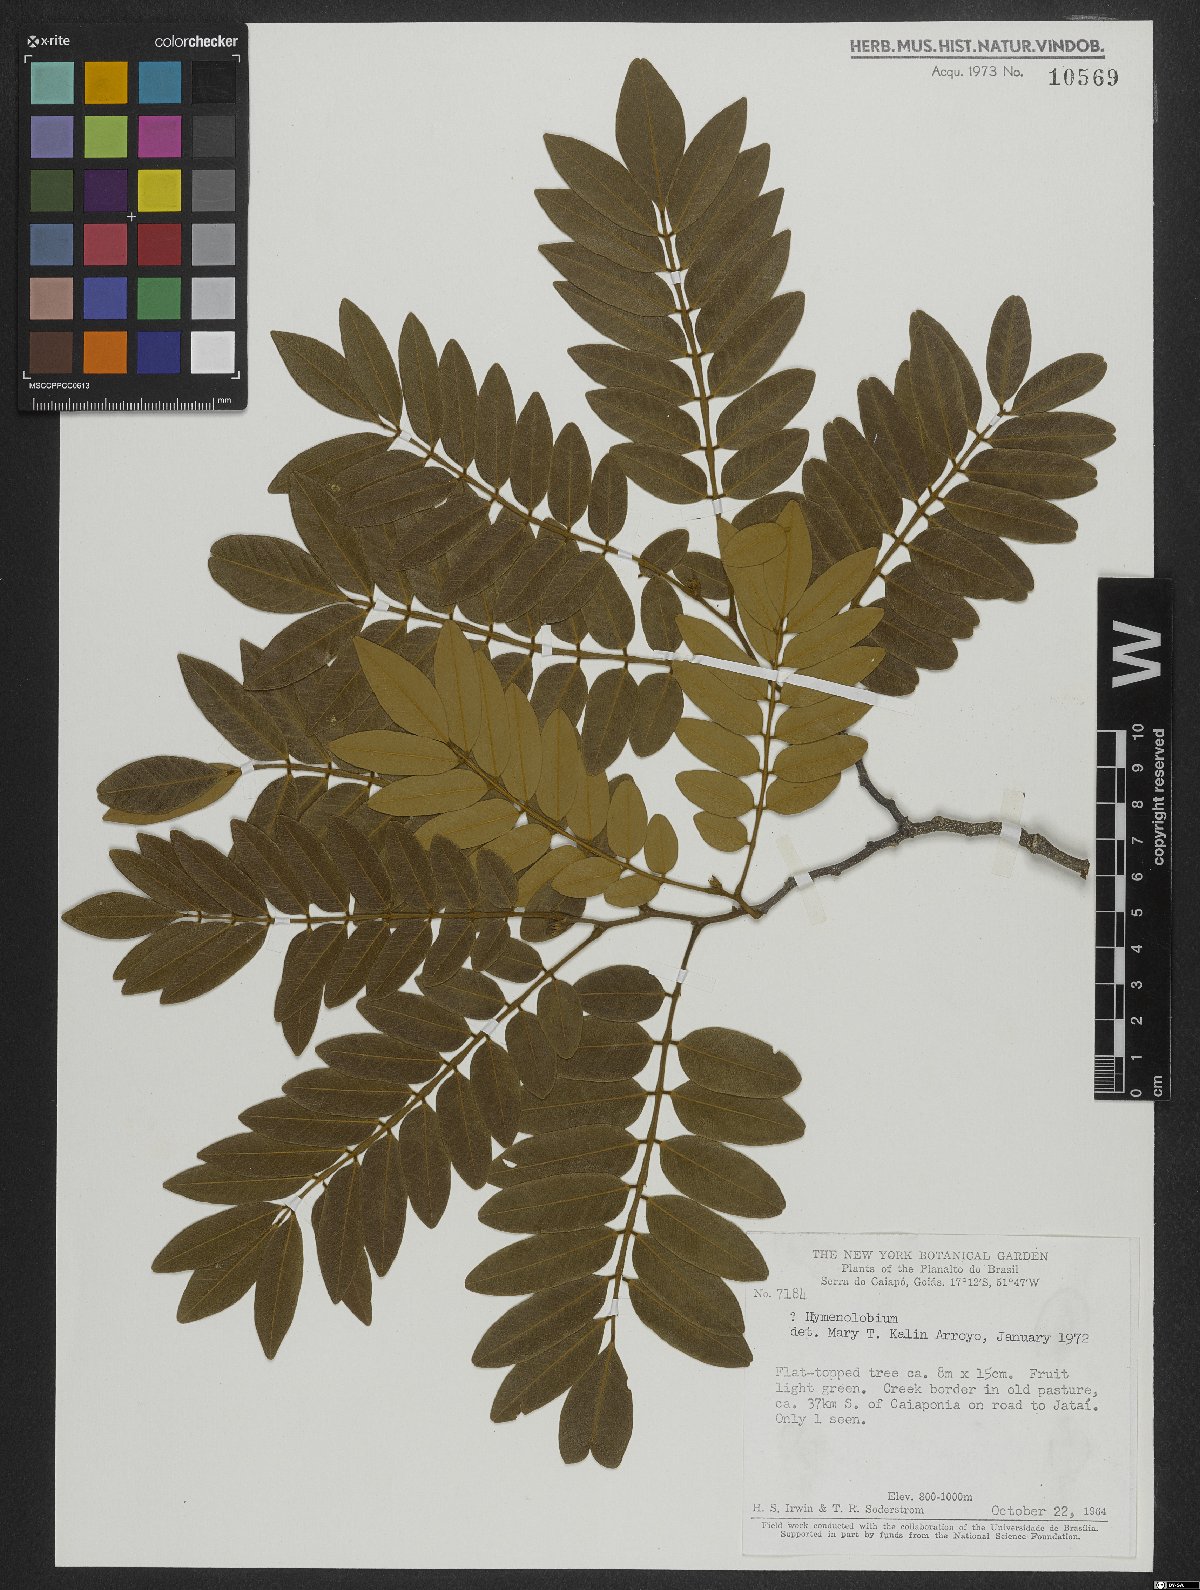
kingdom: Plantae
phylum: Tracheophyta
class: Magnoliopsida
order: Fabales
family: Fabaceae
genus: Hymenolobium
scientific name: Hymenolobium
